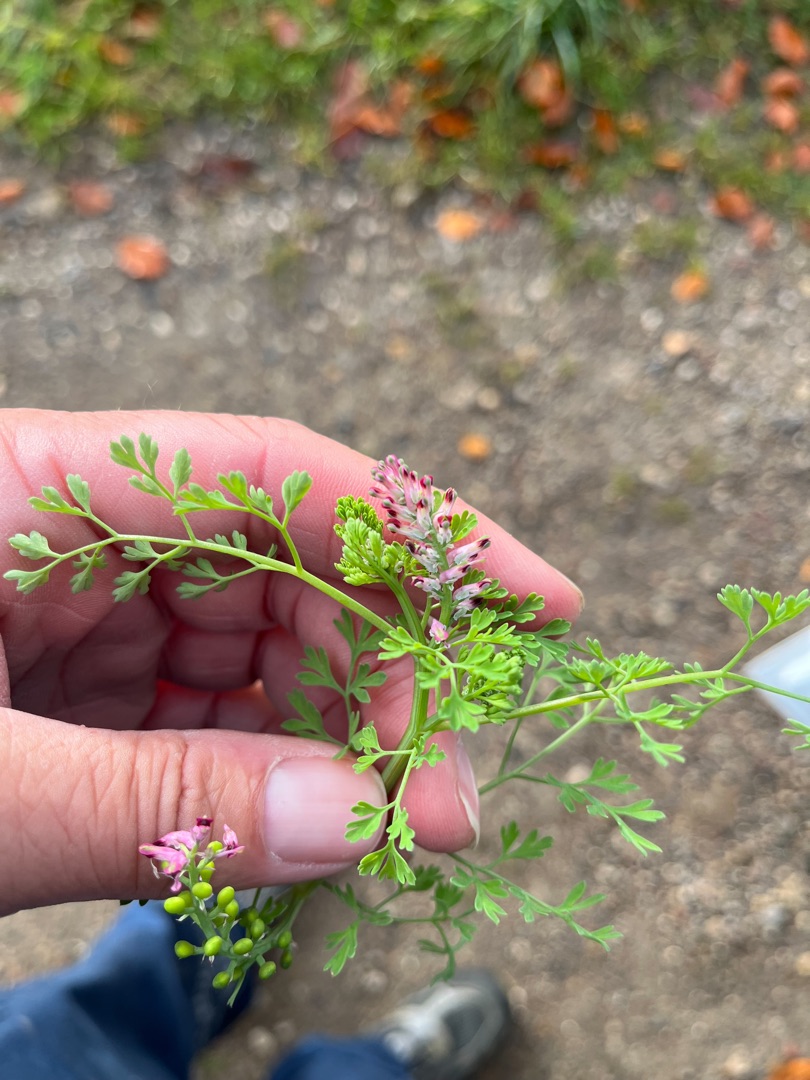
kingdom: Plantae
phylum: Tracheophyta
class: Magnoliopsida
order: Ranunculales
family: Papaveraceae
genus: Fumaria
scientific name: Fumaria
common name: Jordrøgslægten
